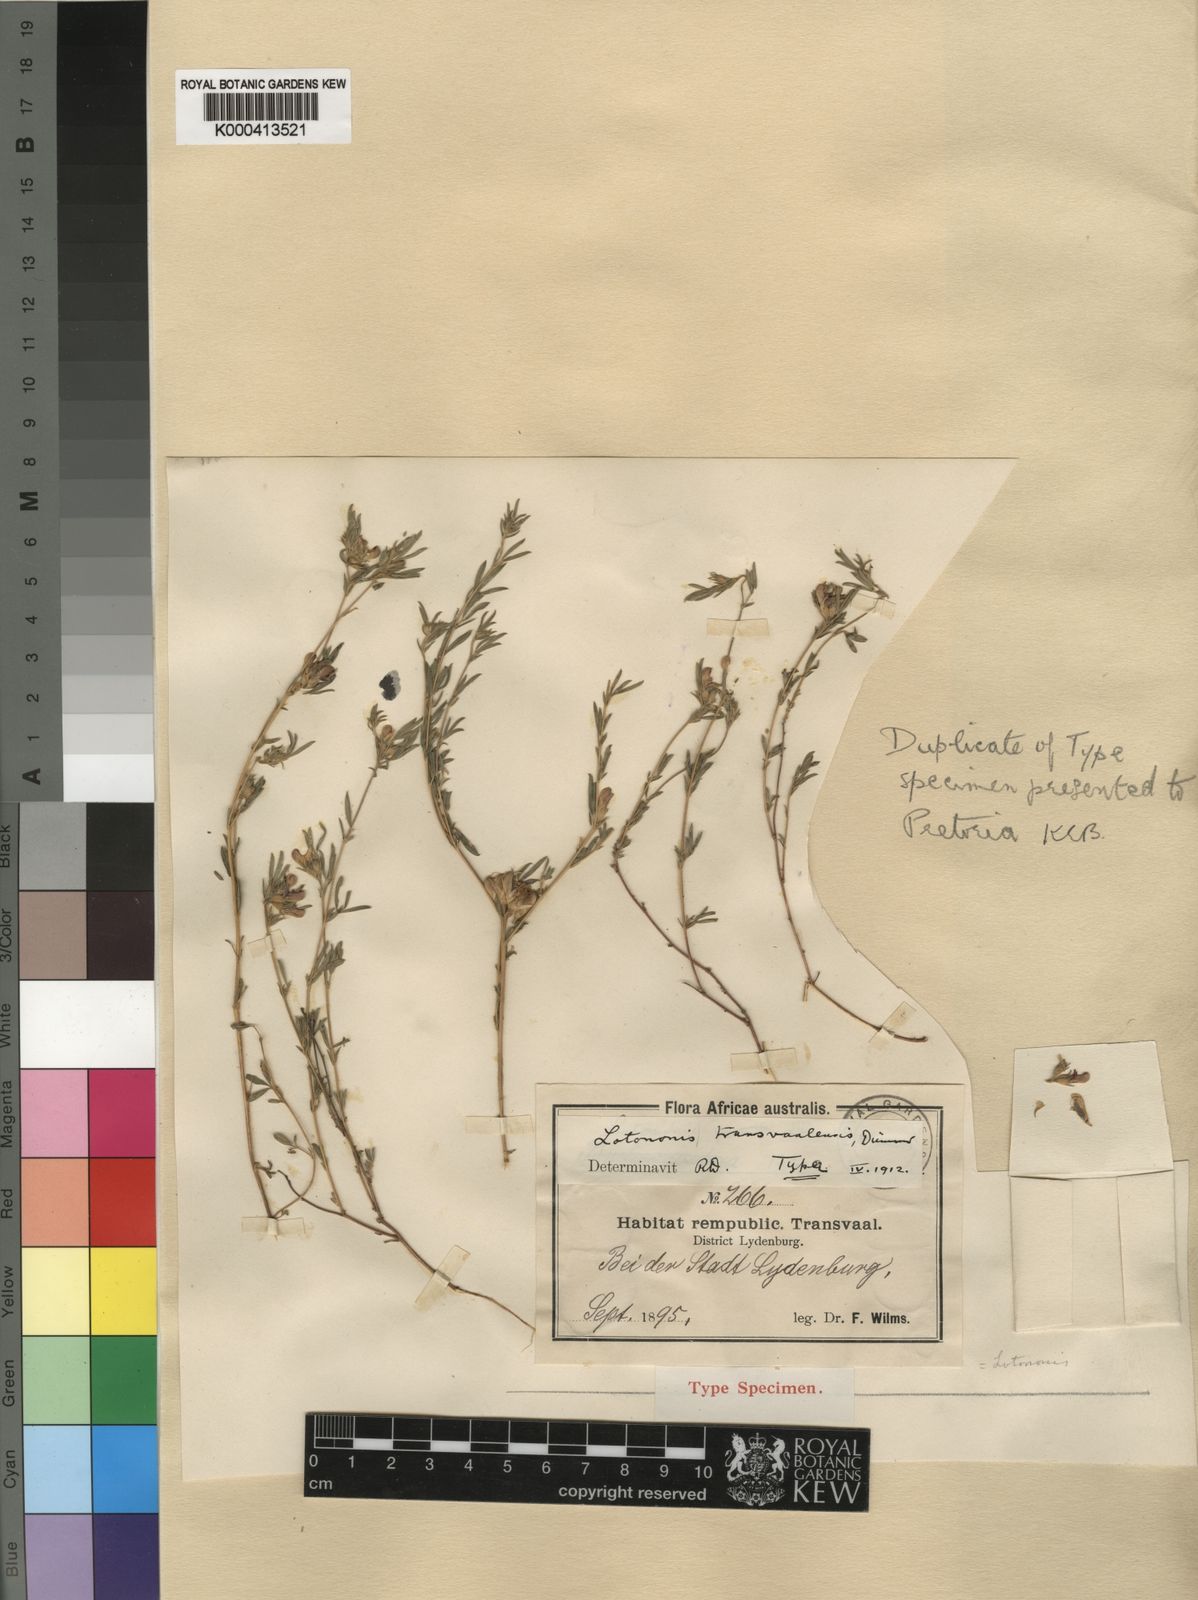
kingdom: Plantae
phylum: Tracheophyta
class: Magnoliopsida
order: Fabales
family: Fabaceae
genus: Leobordea
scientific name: Leobordea carinata
